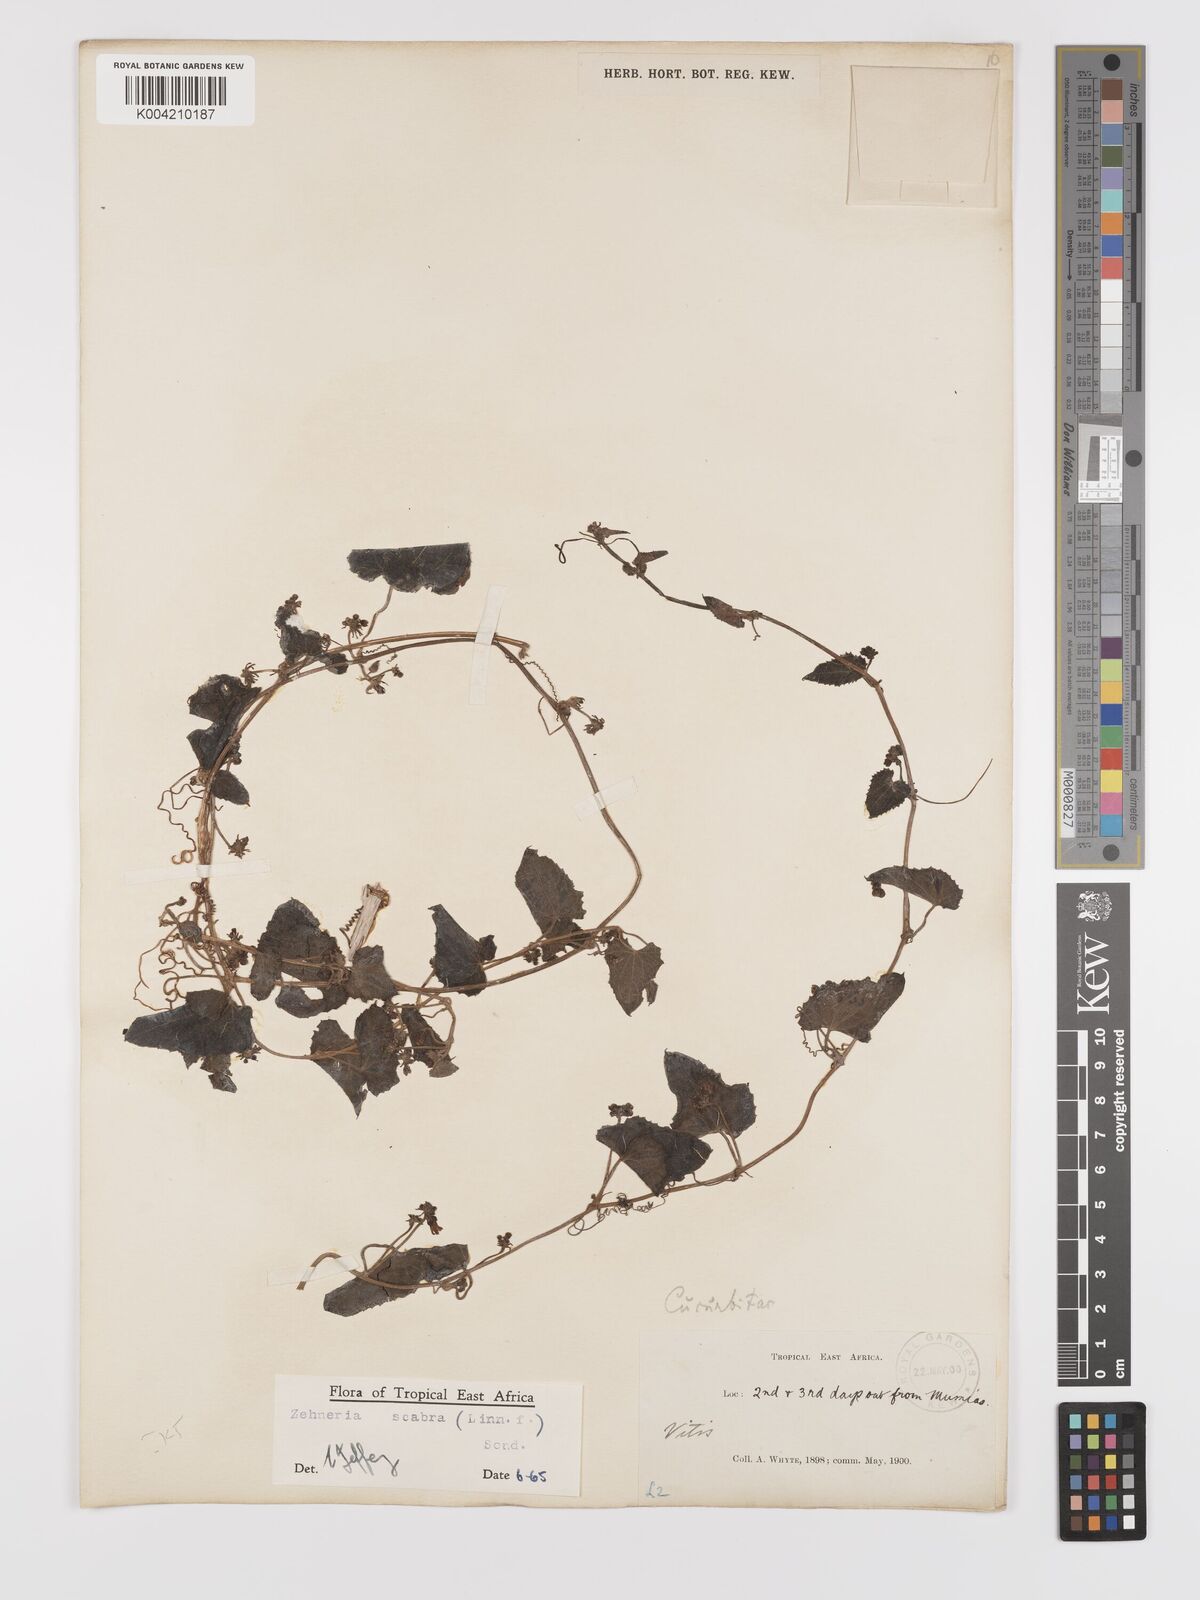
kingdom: Plantae
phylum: Tracheophyta
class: Magnoliopsida
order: Cucurbitales
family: Cucurbitaceae
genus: Zehneria
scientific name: Zehneria scabra
